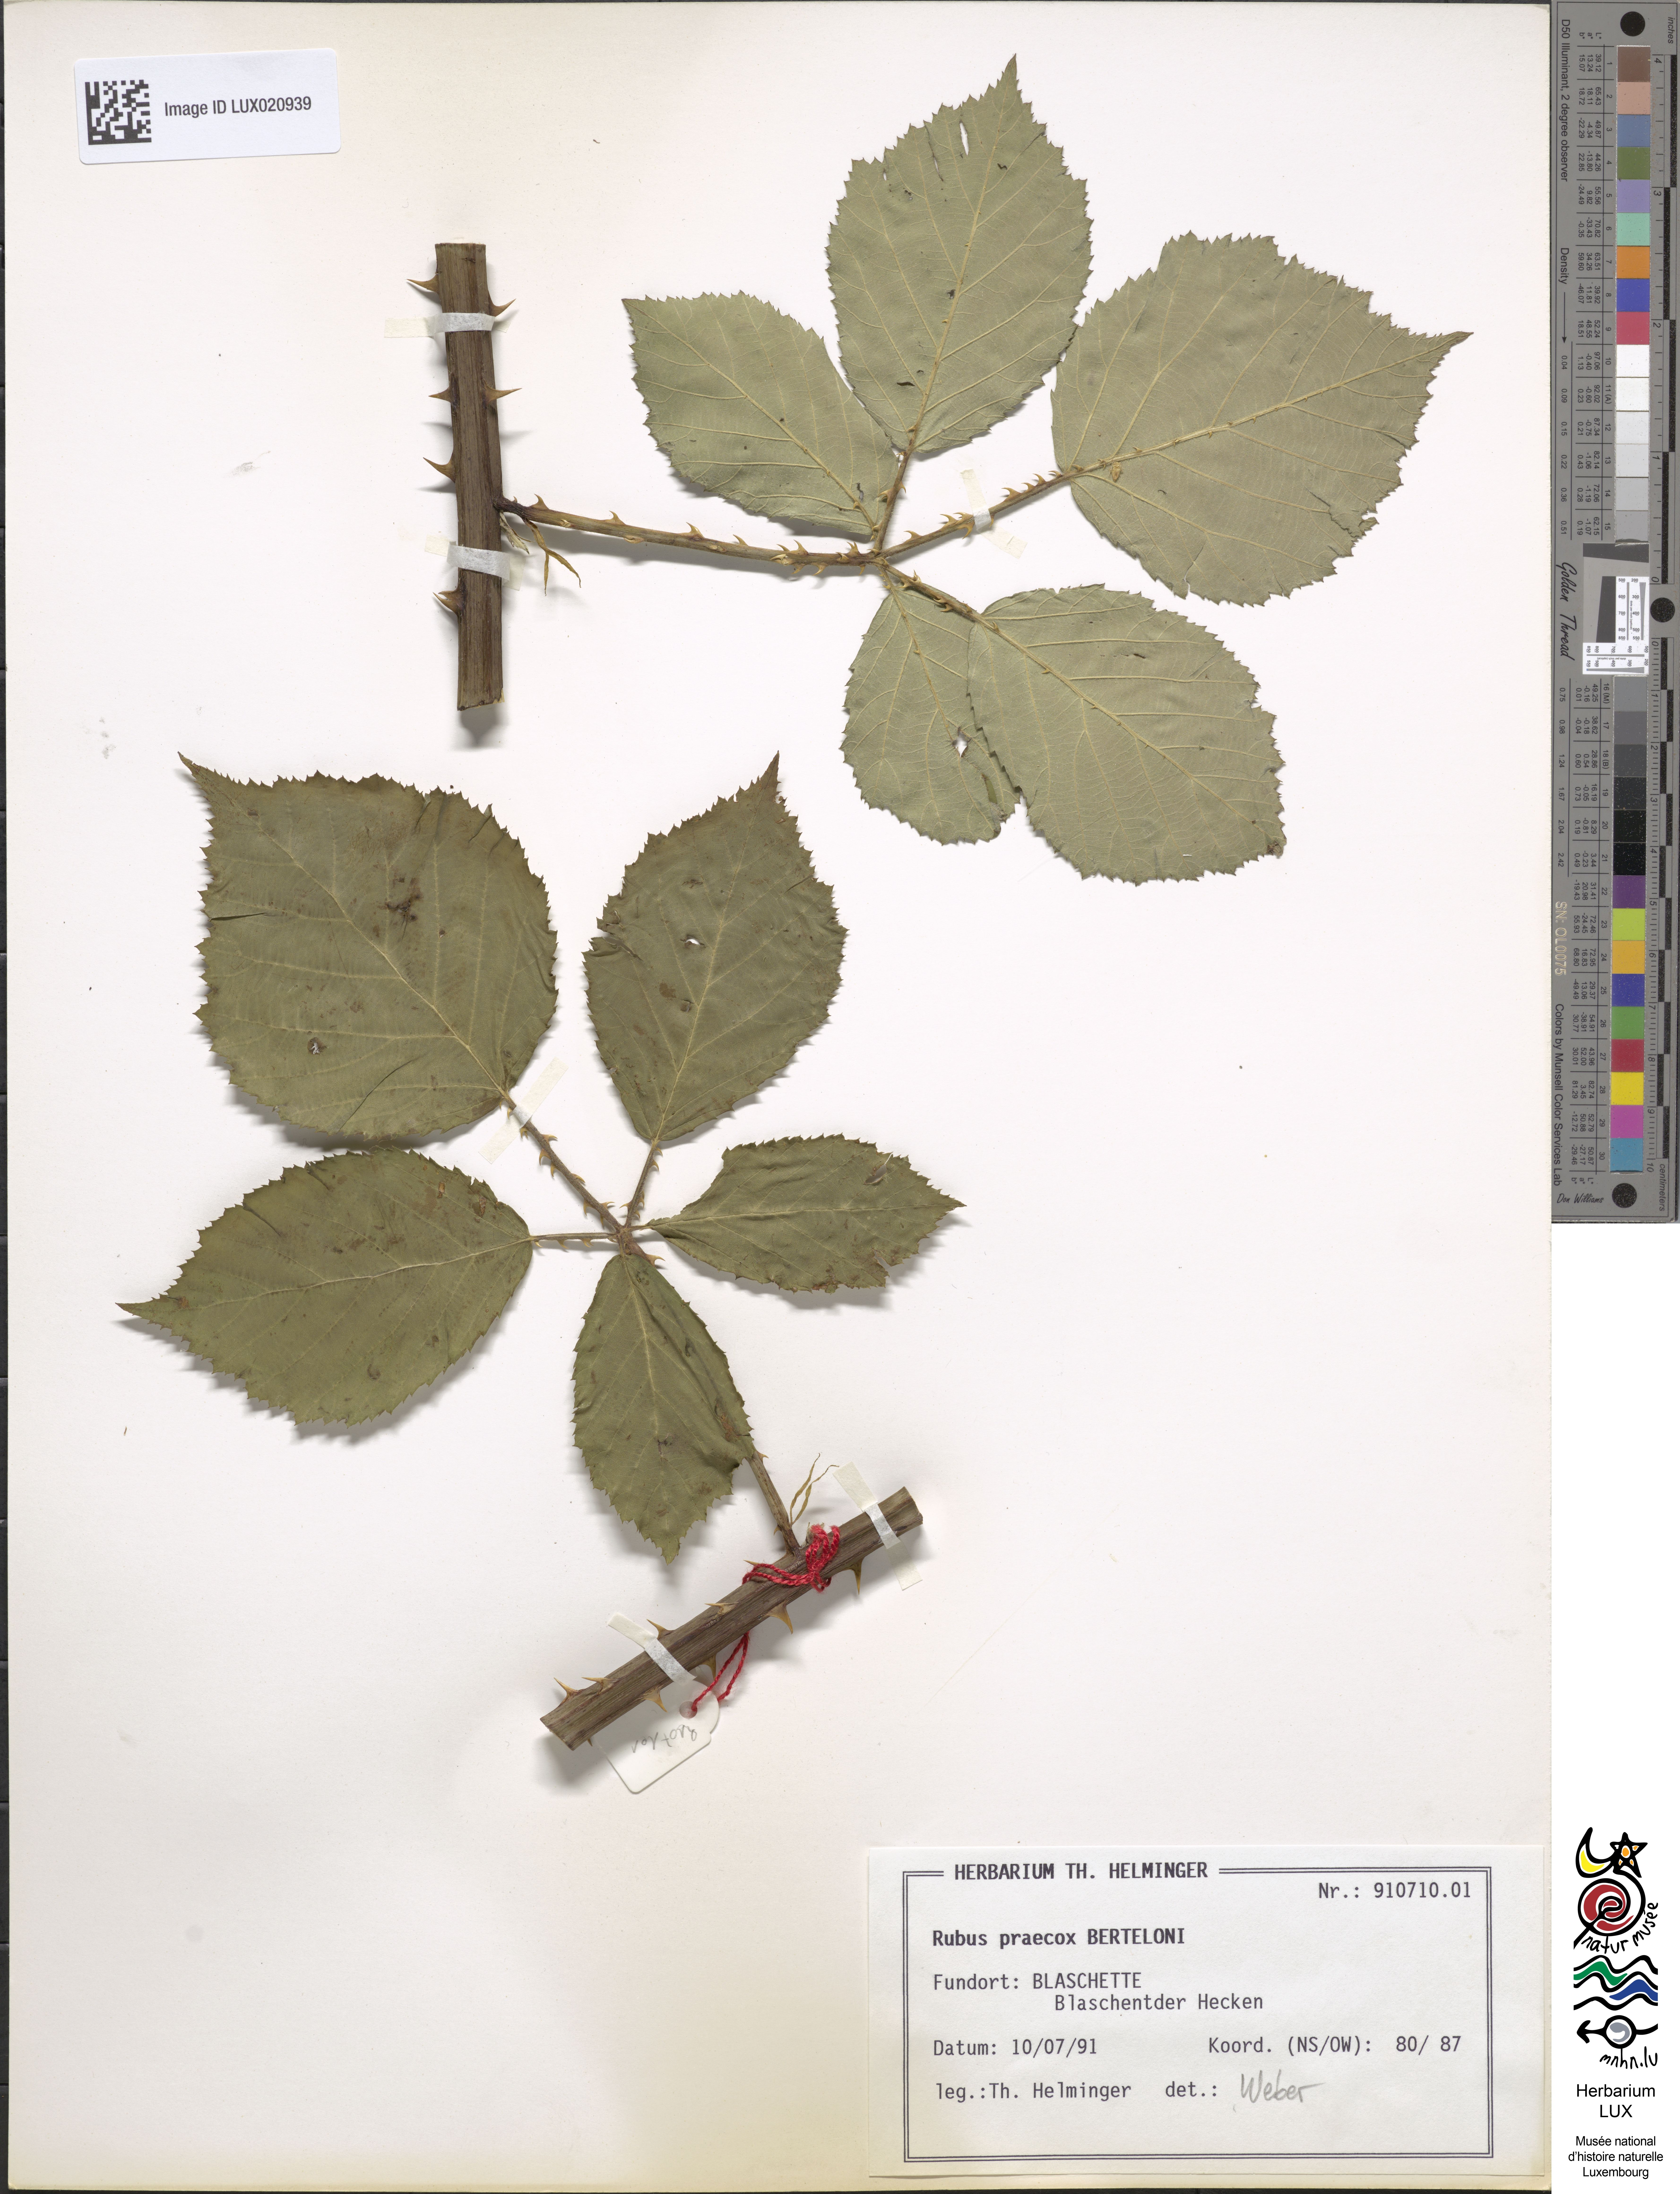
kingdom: Plantae
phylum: Tracheophyta
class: Magnoliopsida
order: Rosales
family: Rosaceae
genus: Rubus
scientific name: Rubus praecox
